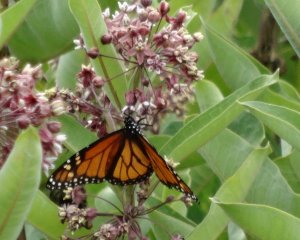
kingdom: Animalia
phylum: Arthropoda
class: Insecta
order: Lepidoptera
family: Nymphalidae
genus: Danaus
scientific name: Danaus plexippus
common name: Monarch
